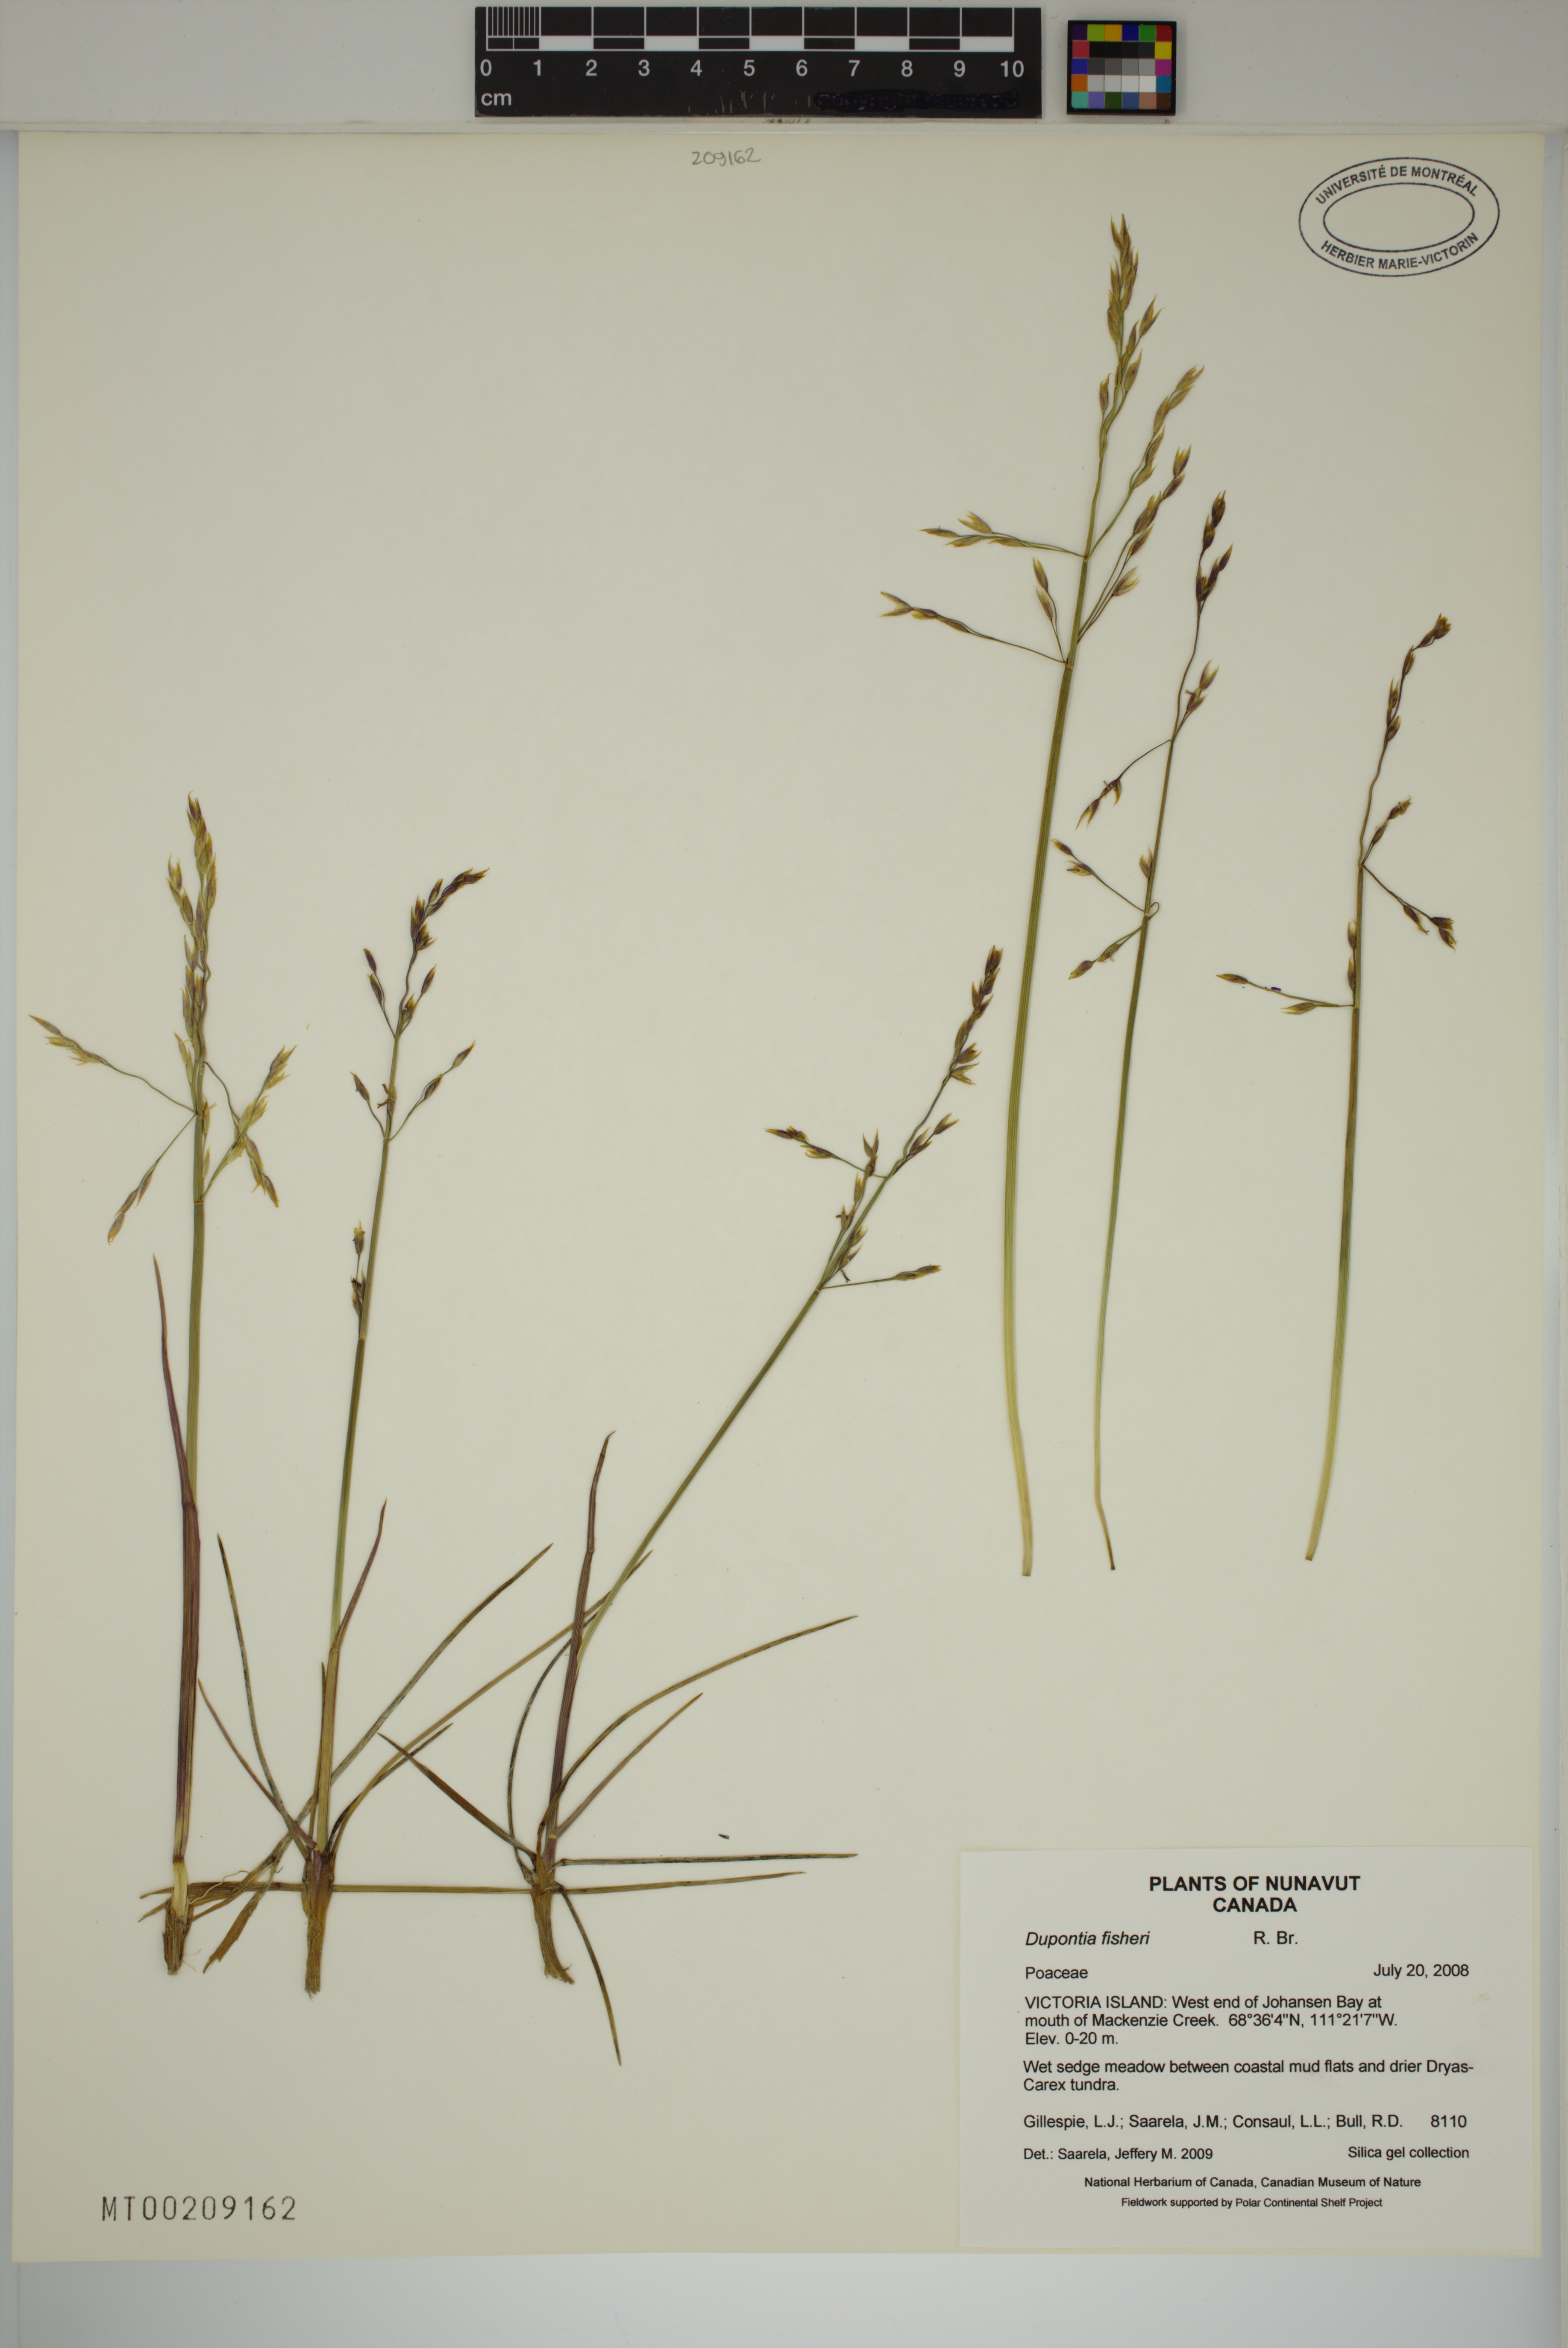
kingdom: Plantae
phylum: Tracheophyta
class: Liliopsida
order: Poales
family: Poaceae
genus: Dupontia
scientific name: Dupontia fisheri
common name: Tundra grass
